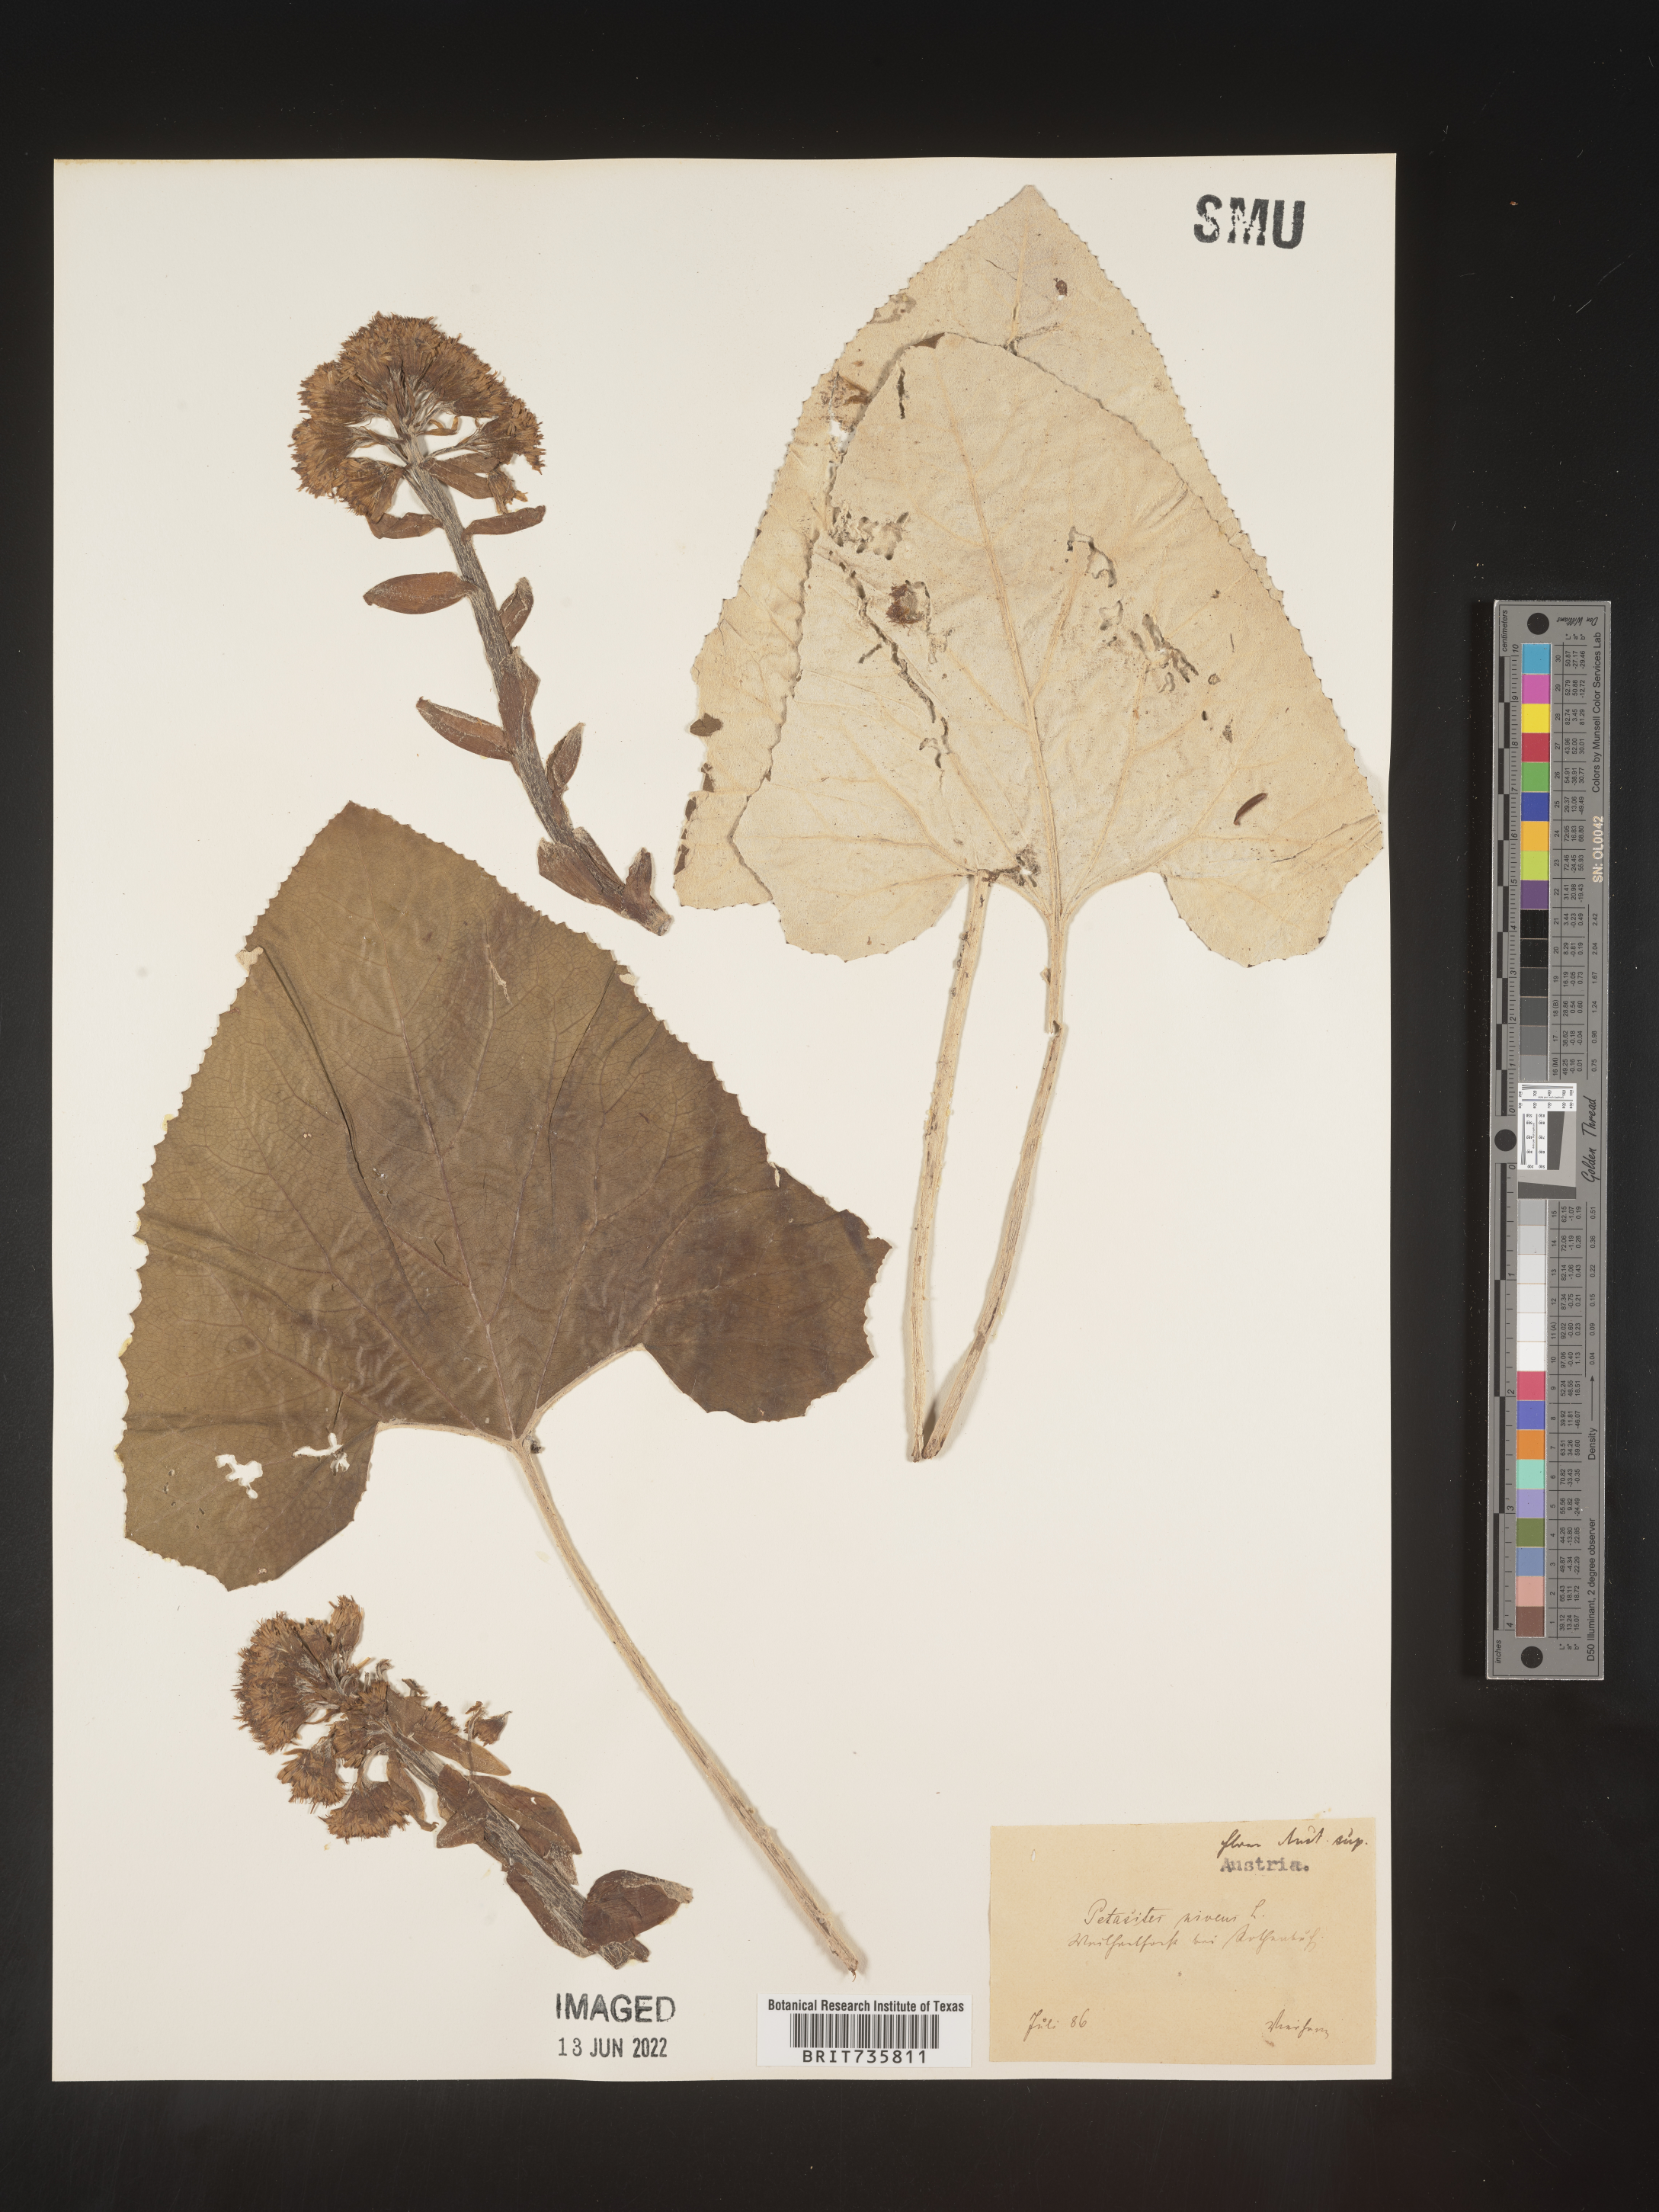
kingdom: Plantae
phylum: Tracheophyta
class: Magnoliopsida
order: Asterales
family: Asteraceae
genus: Petasites
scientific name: Petasites
